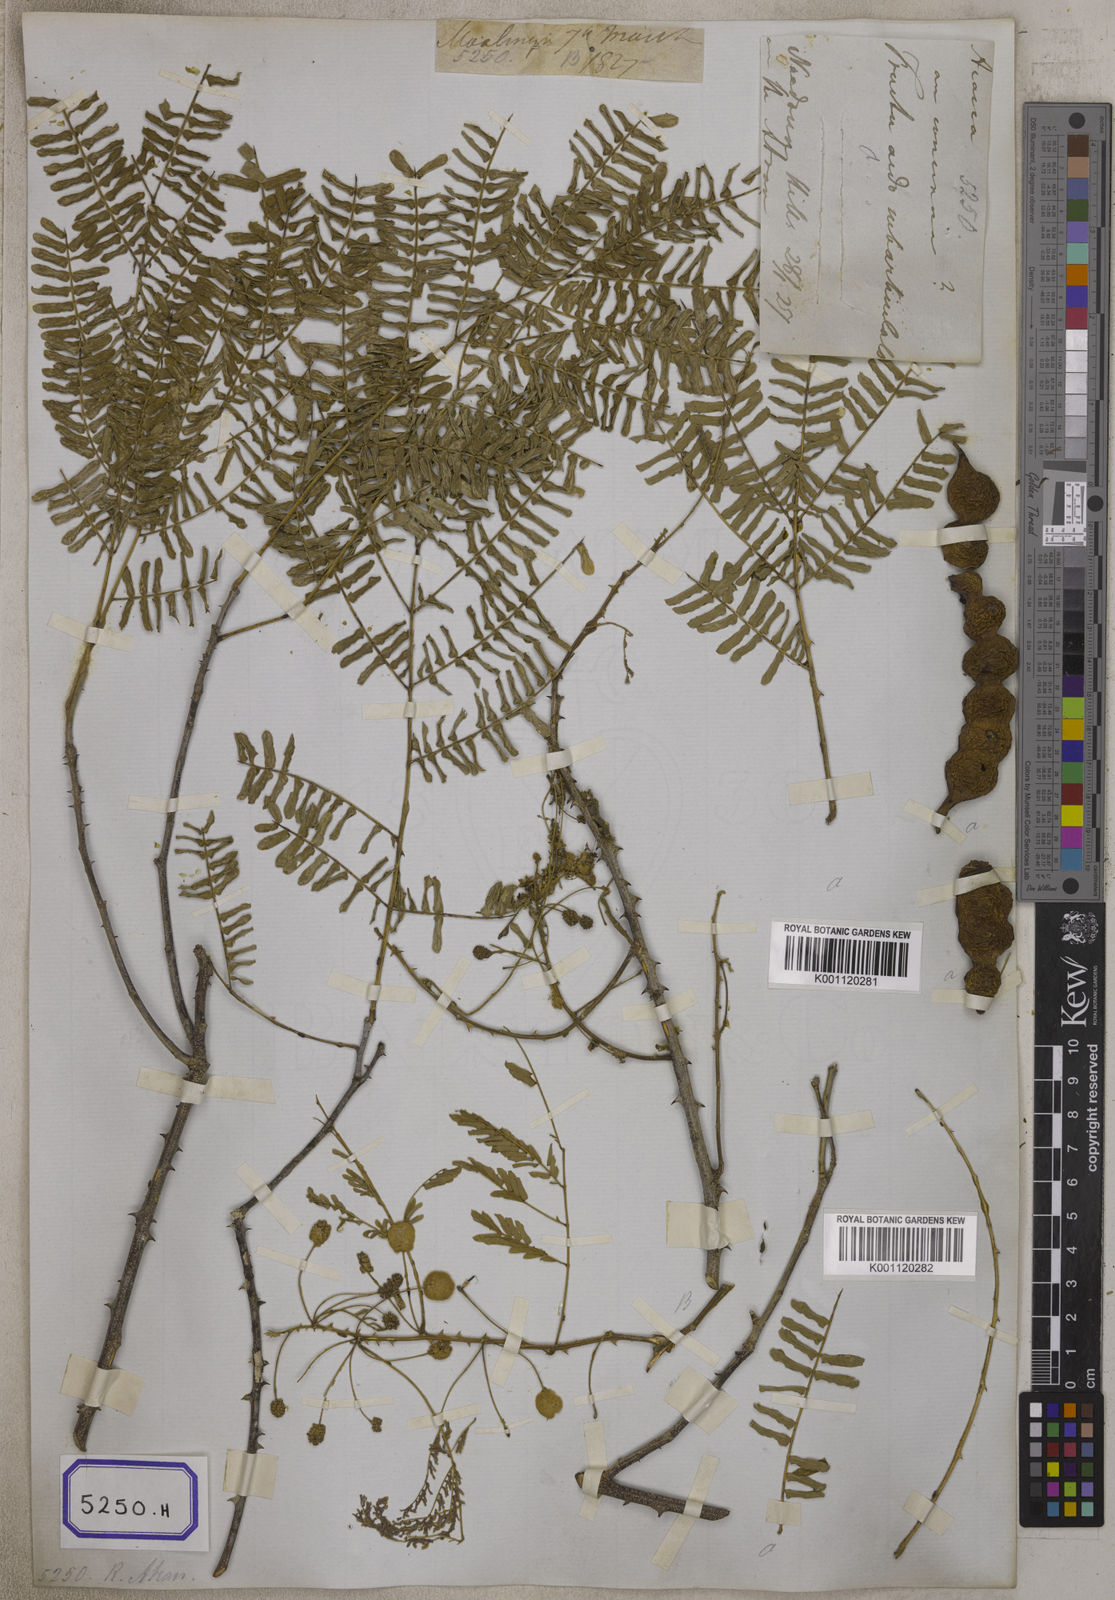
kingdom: Plantae
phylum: Tracheophyta
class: Magnoliopsida
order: Fabales
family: Fabaceae
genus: Senegalia
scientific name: Senegalia rugata
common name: Soap-pod
